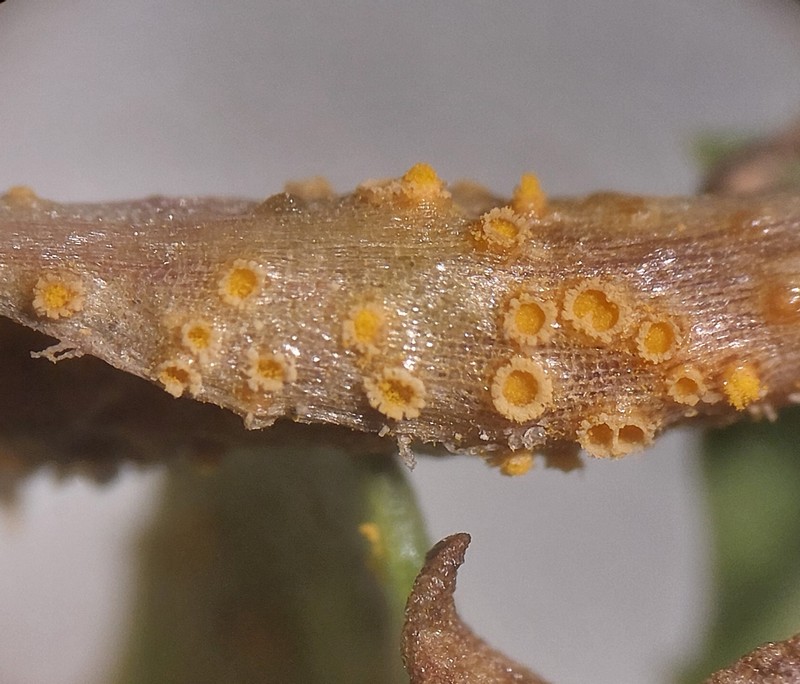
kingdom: Fungi
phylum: Basidiomycota
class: Pucciniomycetes
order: Pucciniales
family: Pucciniaceae
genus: Puccinia
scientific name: Puccinia lagenophorae
